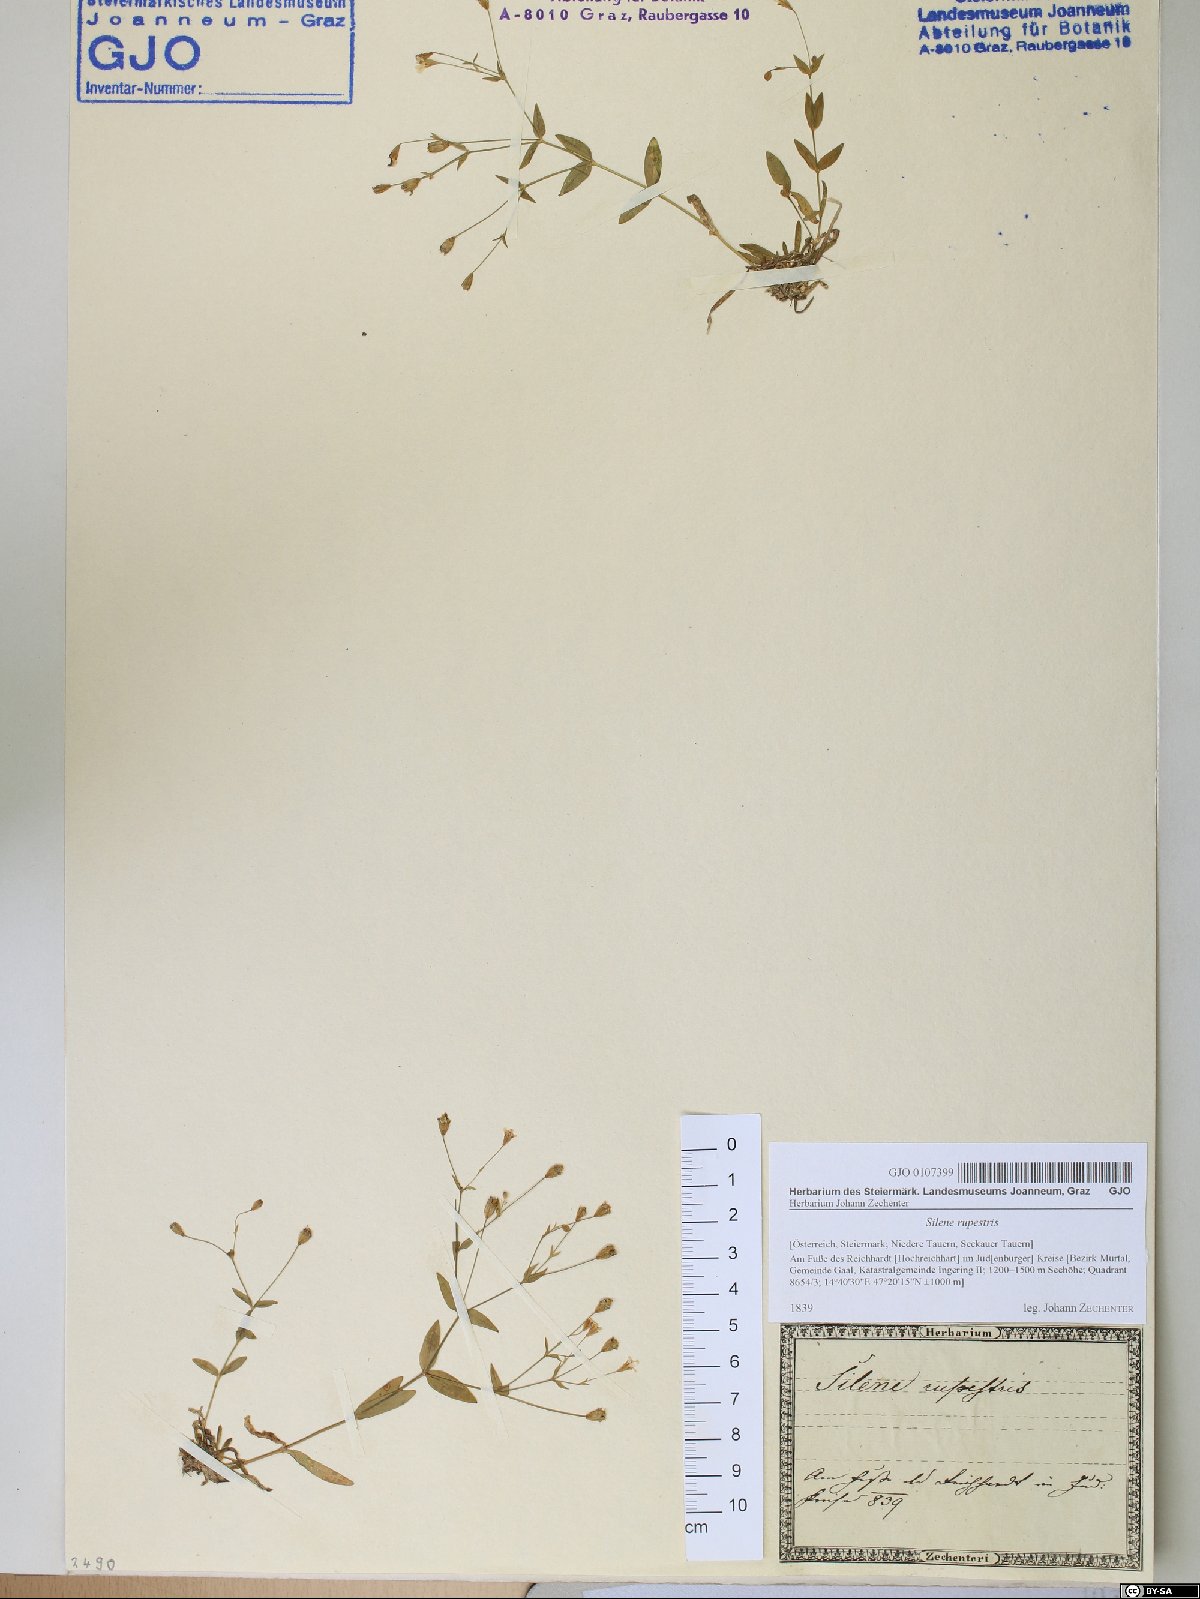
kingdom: Plantae
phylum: Tracheophyta
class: Magnoliopsida
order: Caryophyllales
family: Caryophyllaceae
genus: Atocion
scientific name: Atocion rupestre
